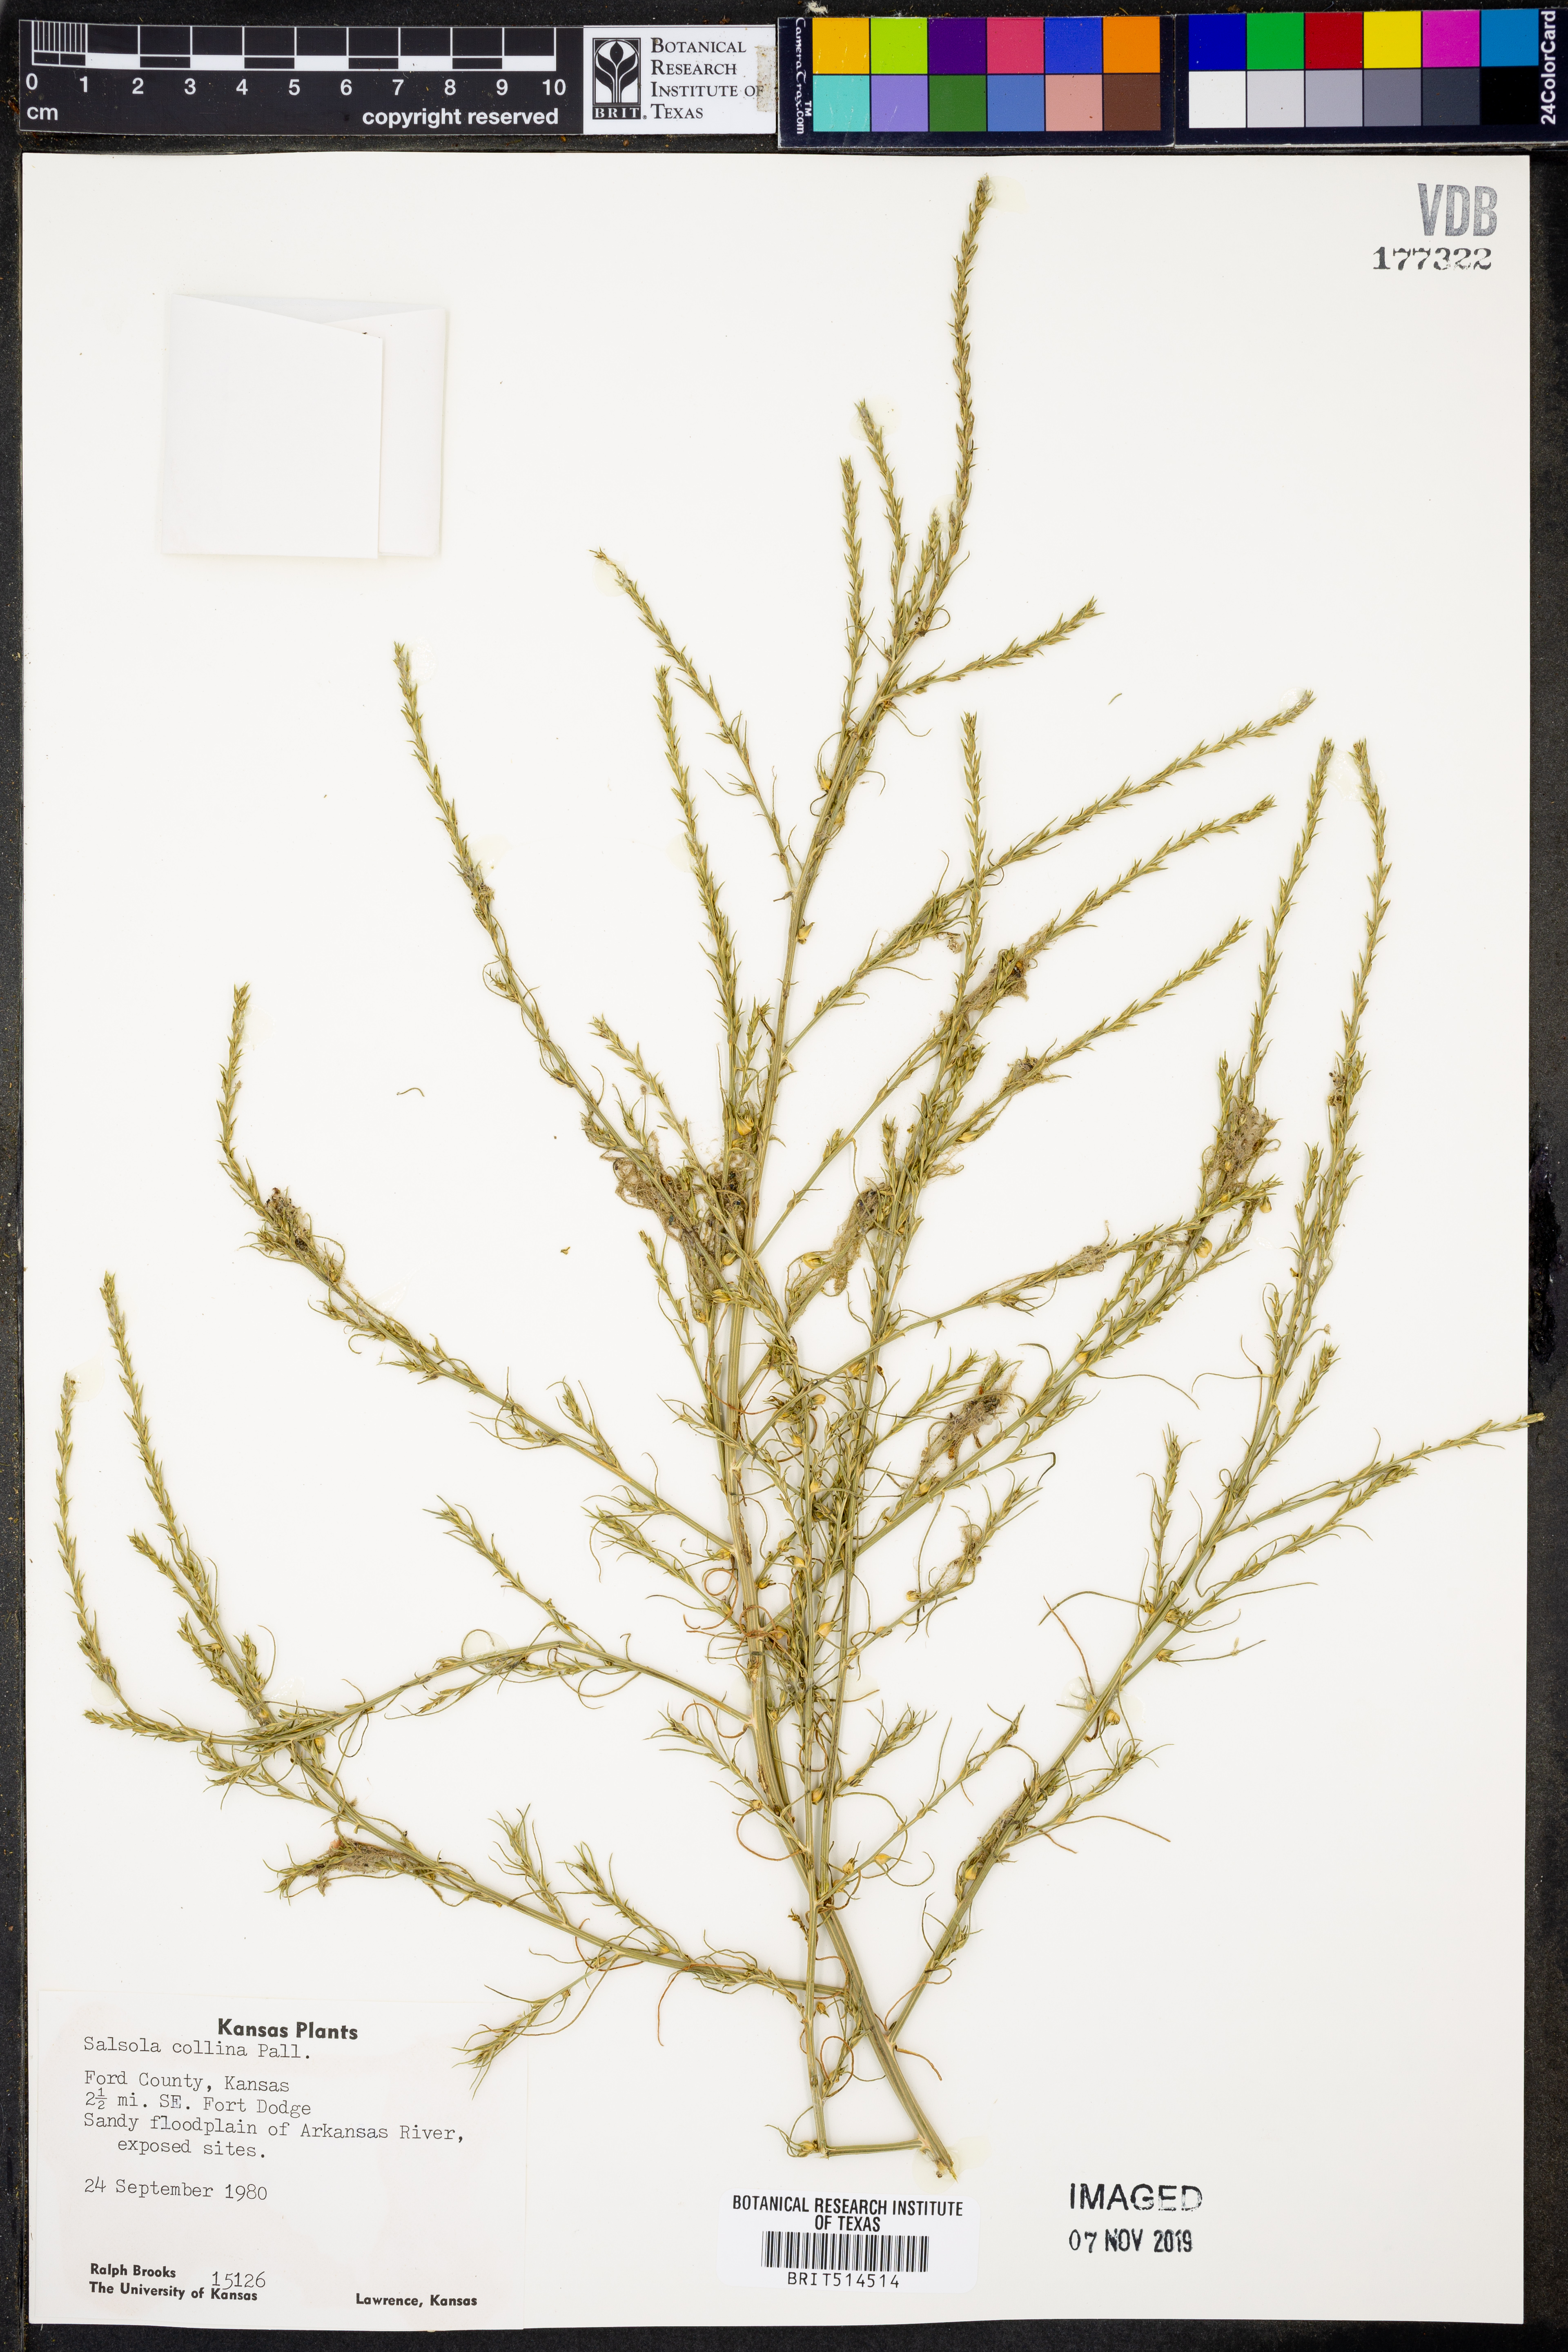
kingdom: Plantae
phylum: Tracheophyta
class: Magnoliopsida
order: Caryophyllales
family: Amaranthaceae
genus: Salsola
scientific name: Salsola collina
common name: Tumbleweed
